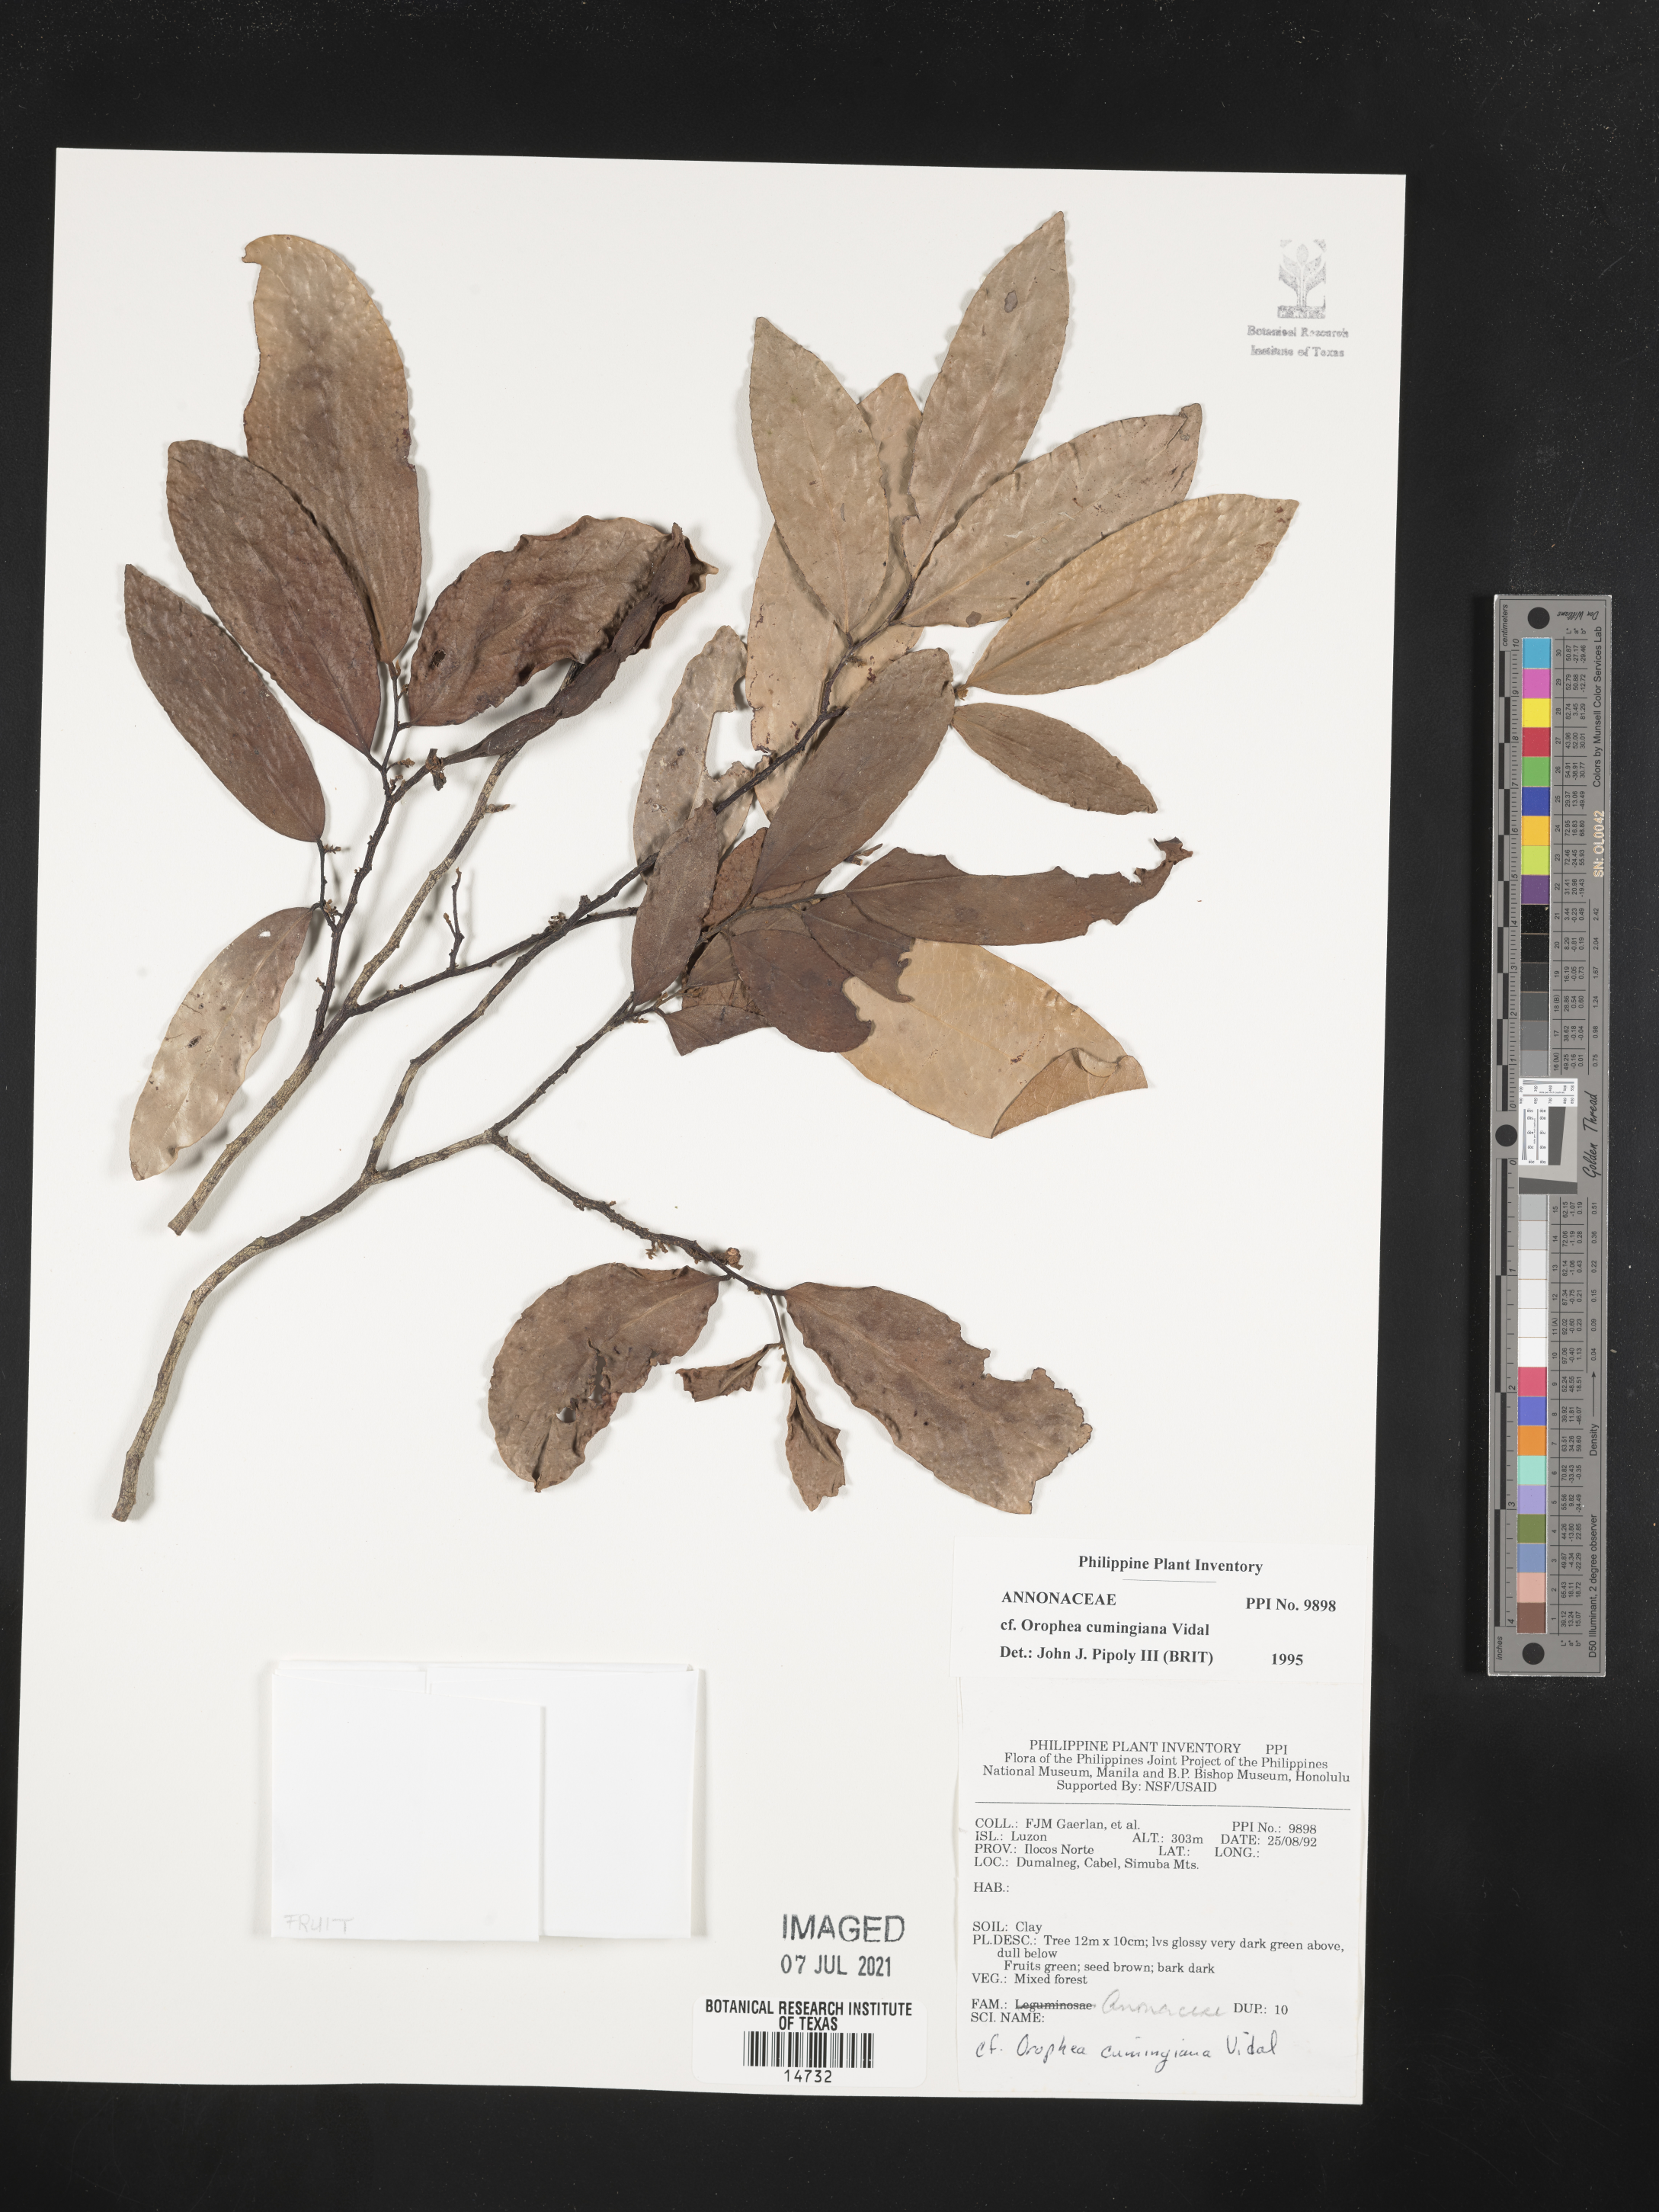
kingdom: Plantae
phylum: Tracheophyta
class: Magnoliopsida
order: Magnoliales
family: Annonaceae
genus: Orophea
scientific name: Orophea cumingiana
